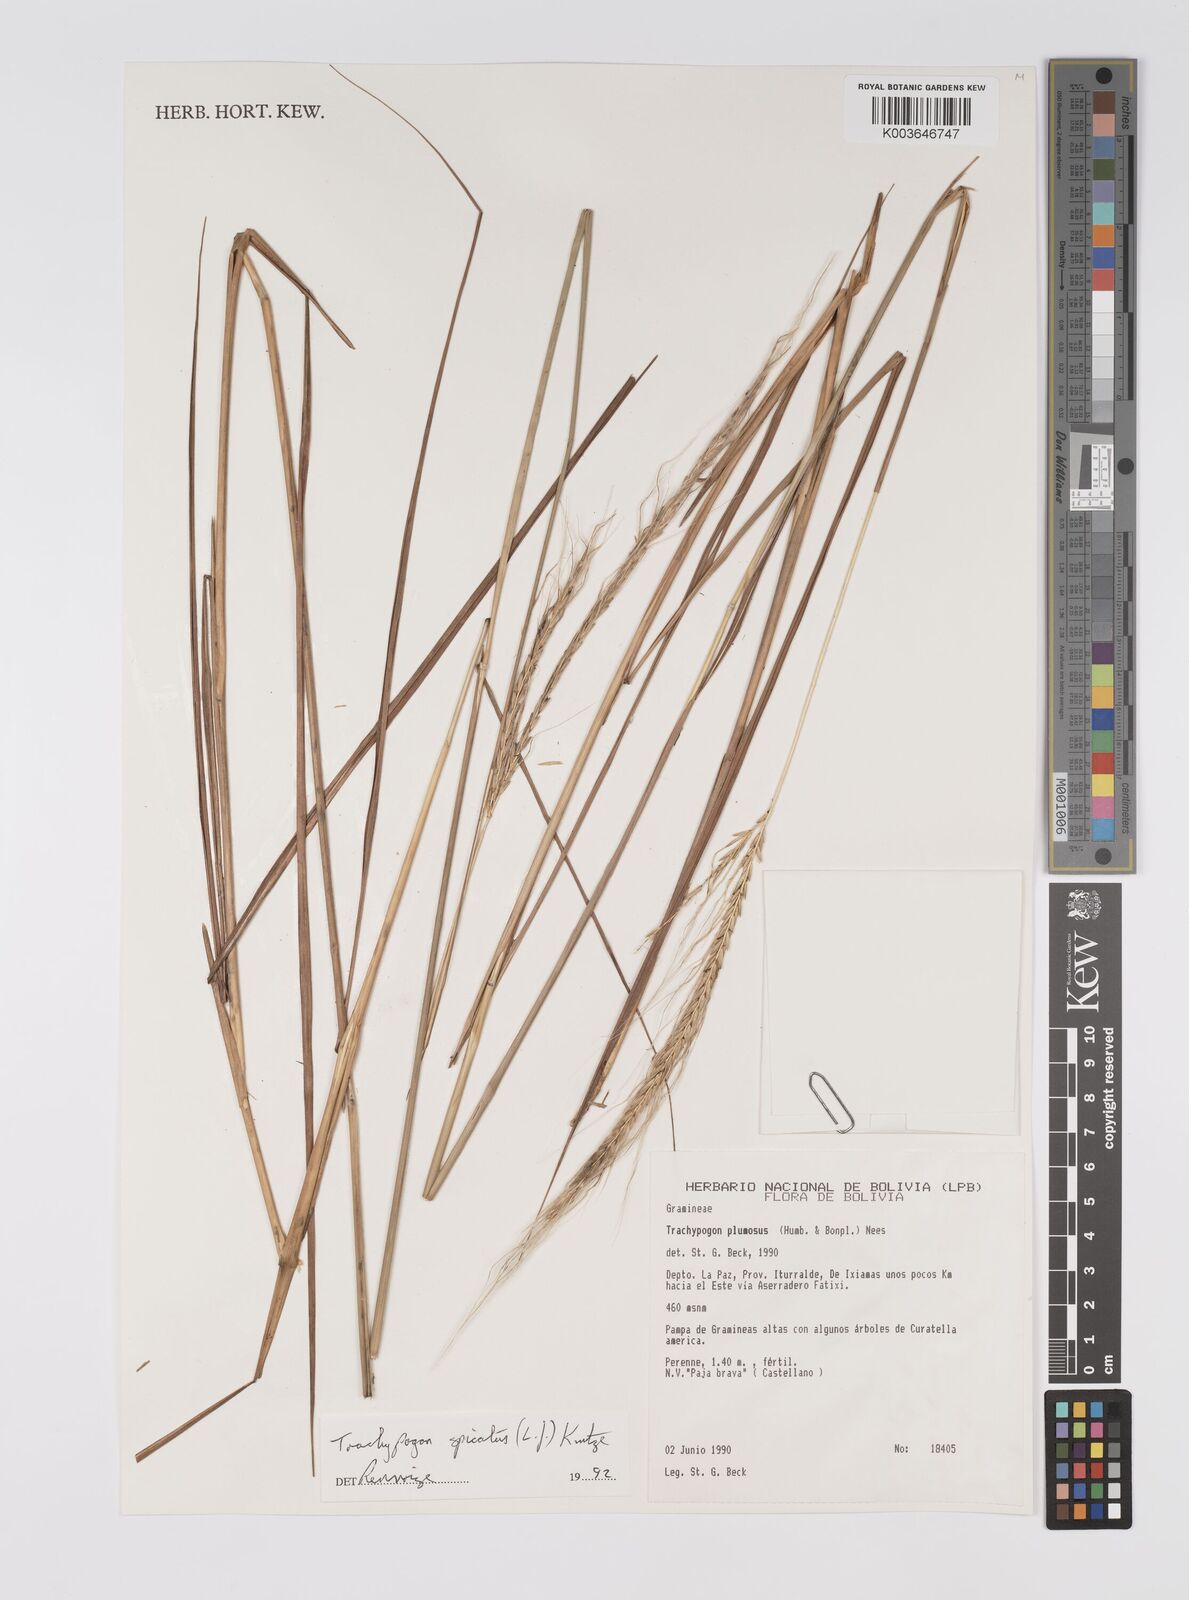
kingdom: Plantae
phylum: Tracheophyta
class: Liliopsida
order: Poales
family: Poaceae
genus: Trachypogon
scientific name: Trachypogon spicatus
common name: Crinkle-awn
